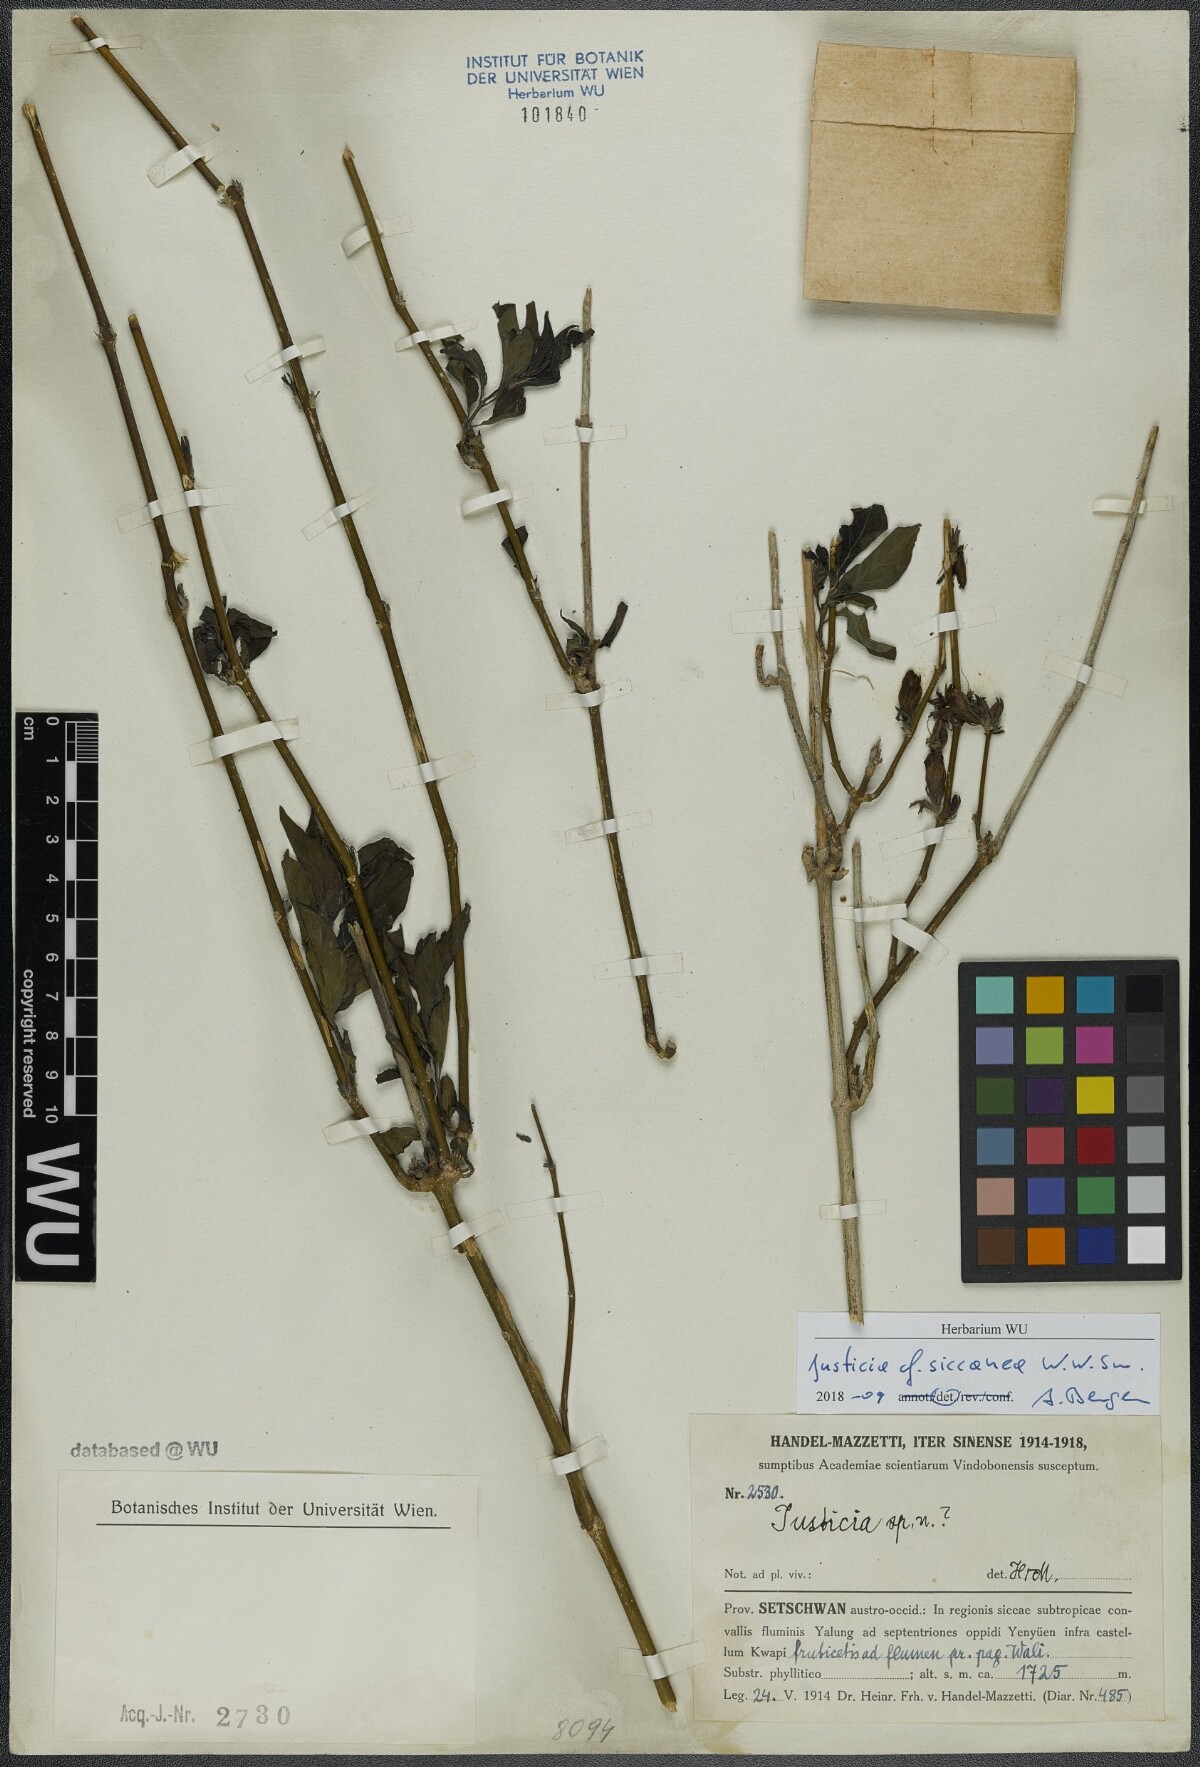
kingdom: Plantae
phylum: Tracheophyta
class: Magnoliopsida
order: Lamiales
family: Acanthaceae
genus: Justicia
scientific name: Justicia siccanea
